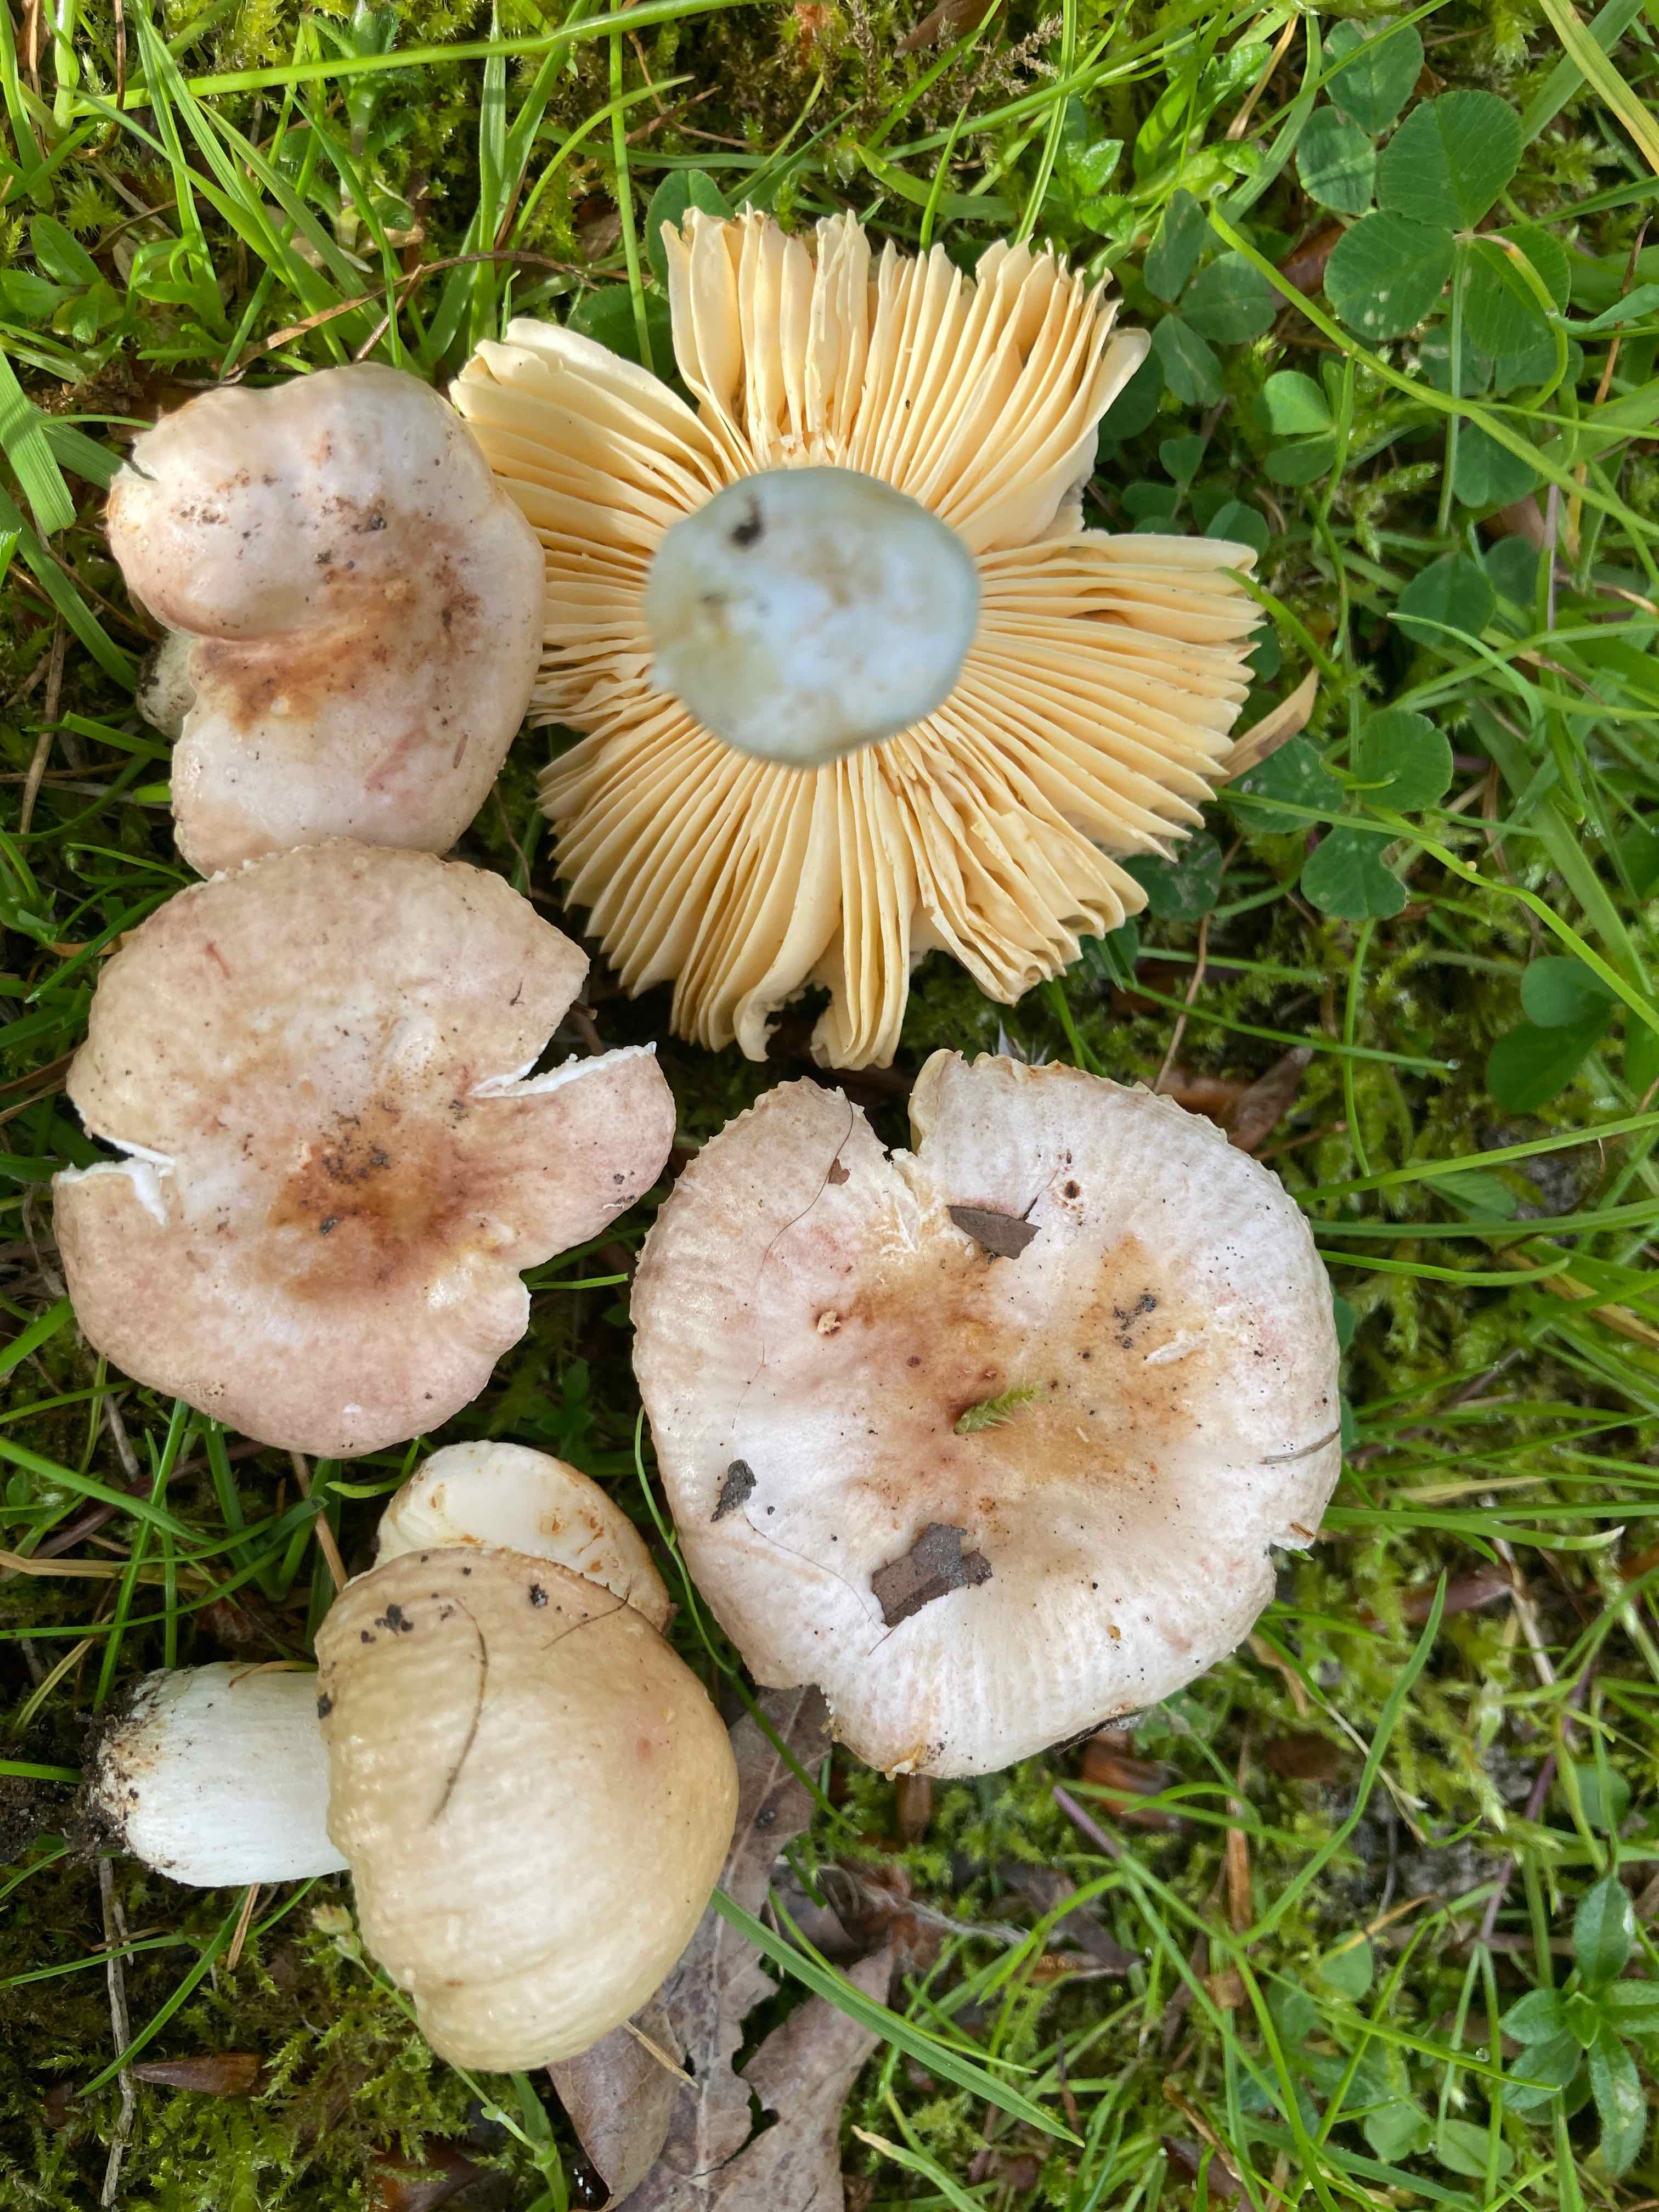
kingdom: Fungi
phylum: Basidiomycota
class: Agaricomycetes
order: Russulales
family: Russulaceae
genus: Russula
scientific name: Russula odorata
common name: duft-skørhat
